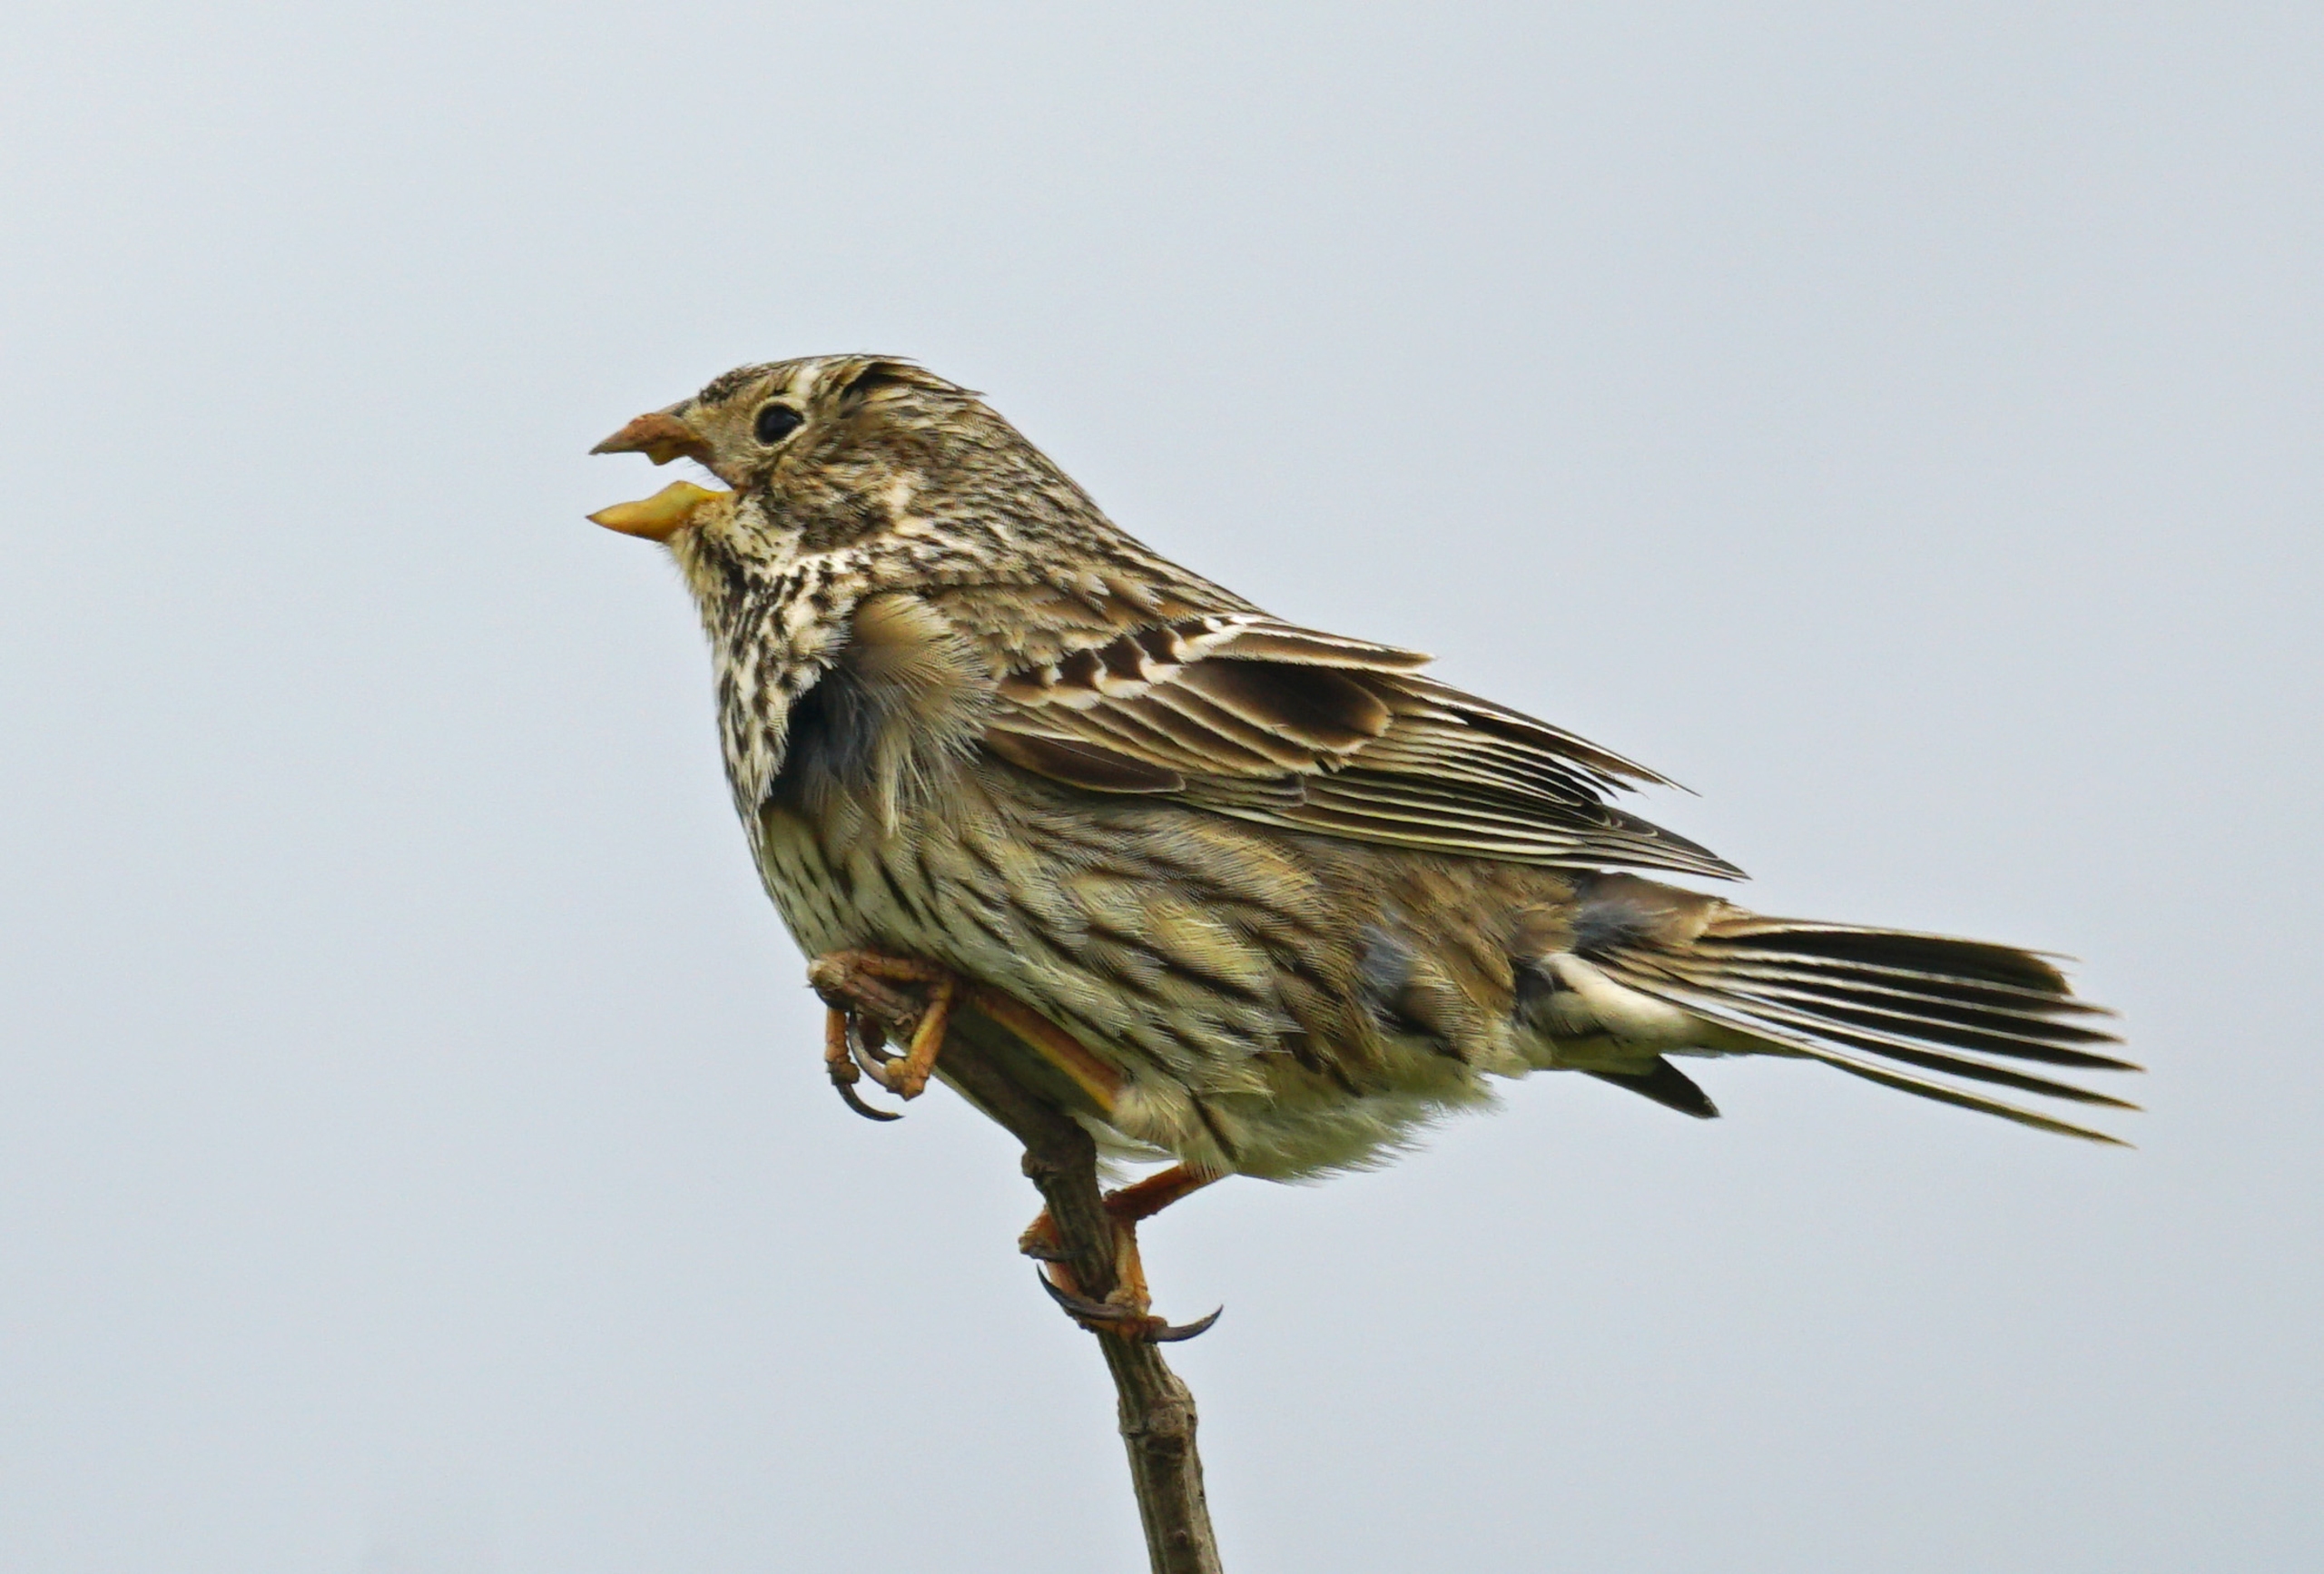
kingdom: Animalia
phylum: Chordata
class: Aves
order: Passeriformes
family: Emberizidae
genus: Emberiza
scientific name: Emberiza calandra
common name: Bomlærke
